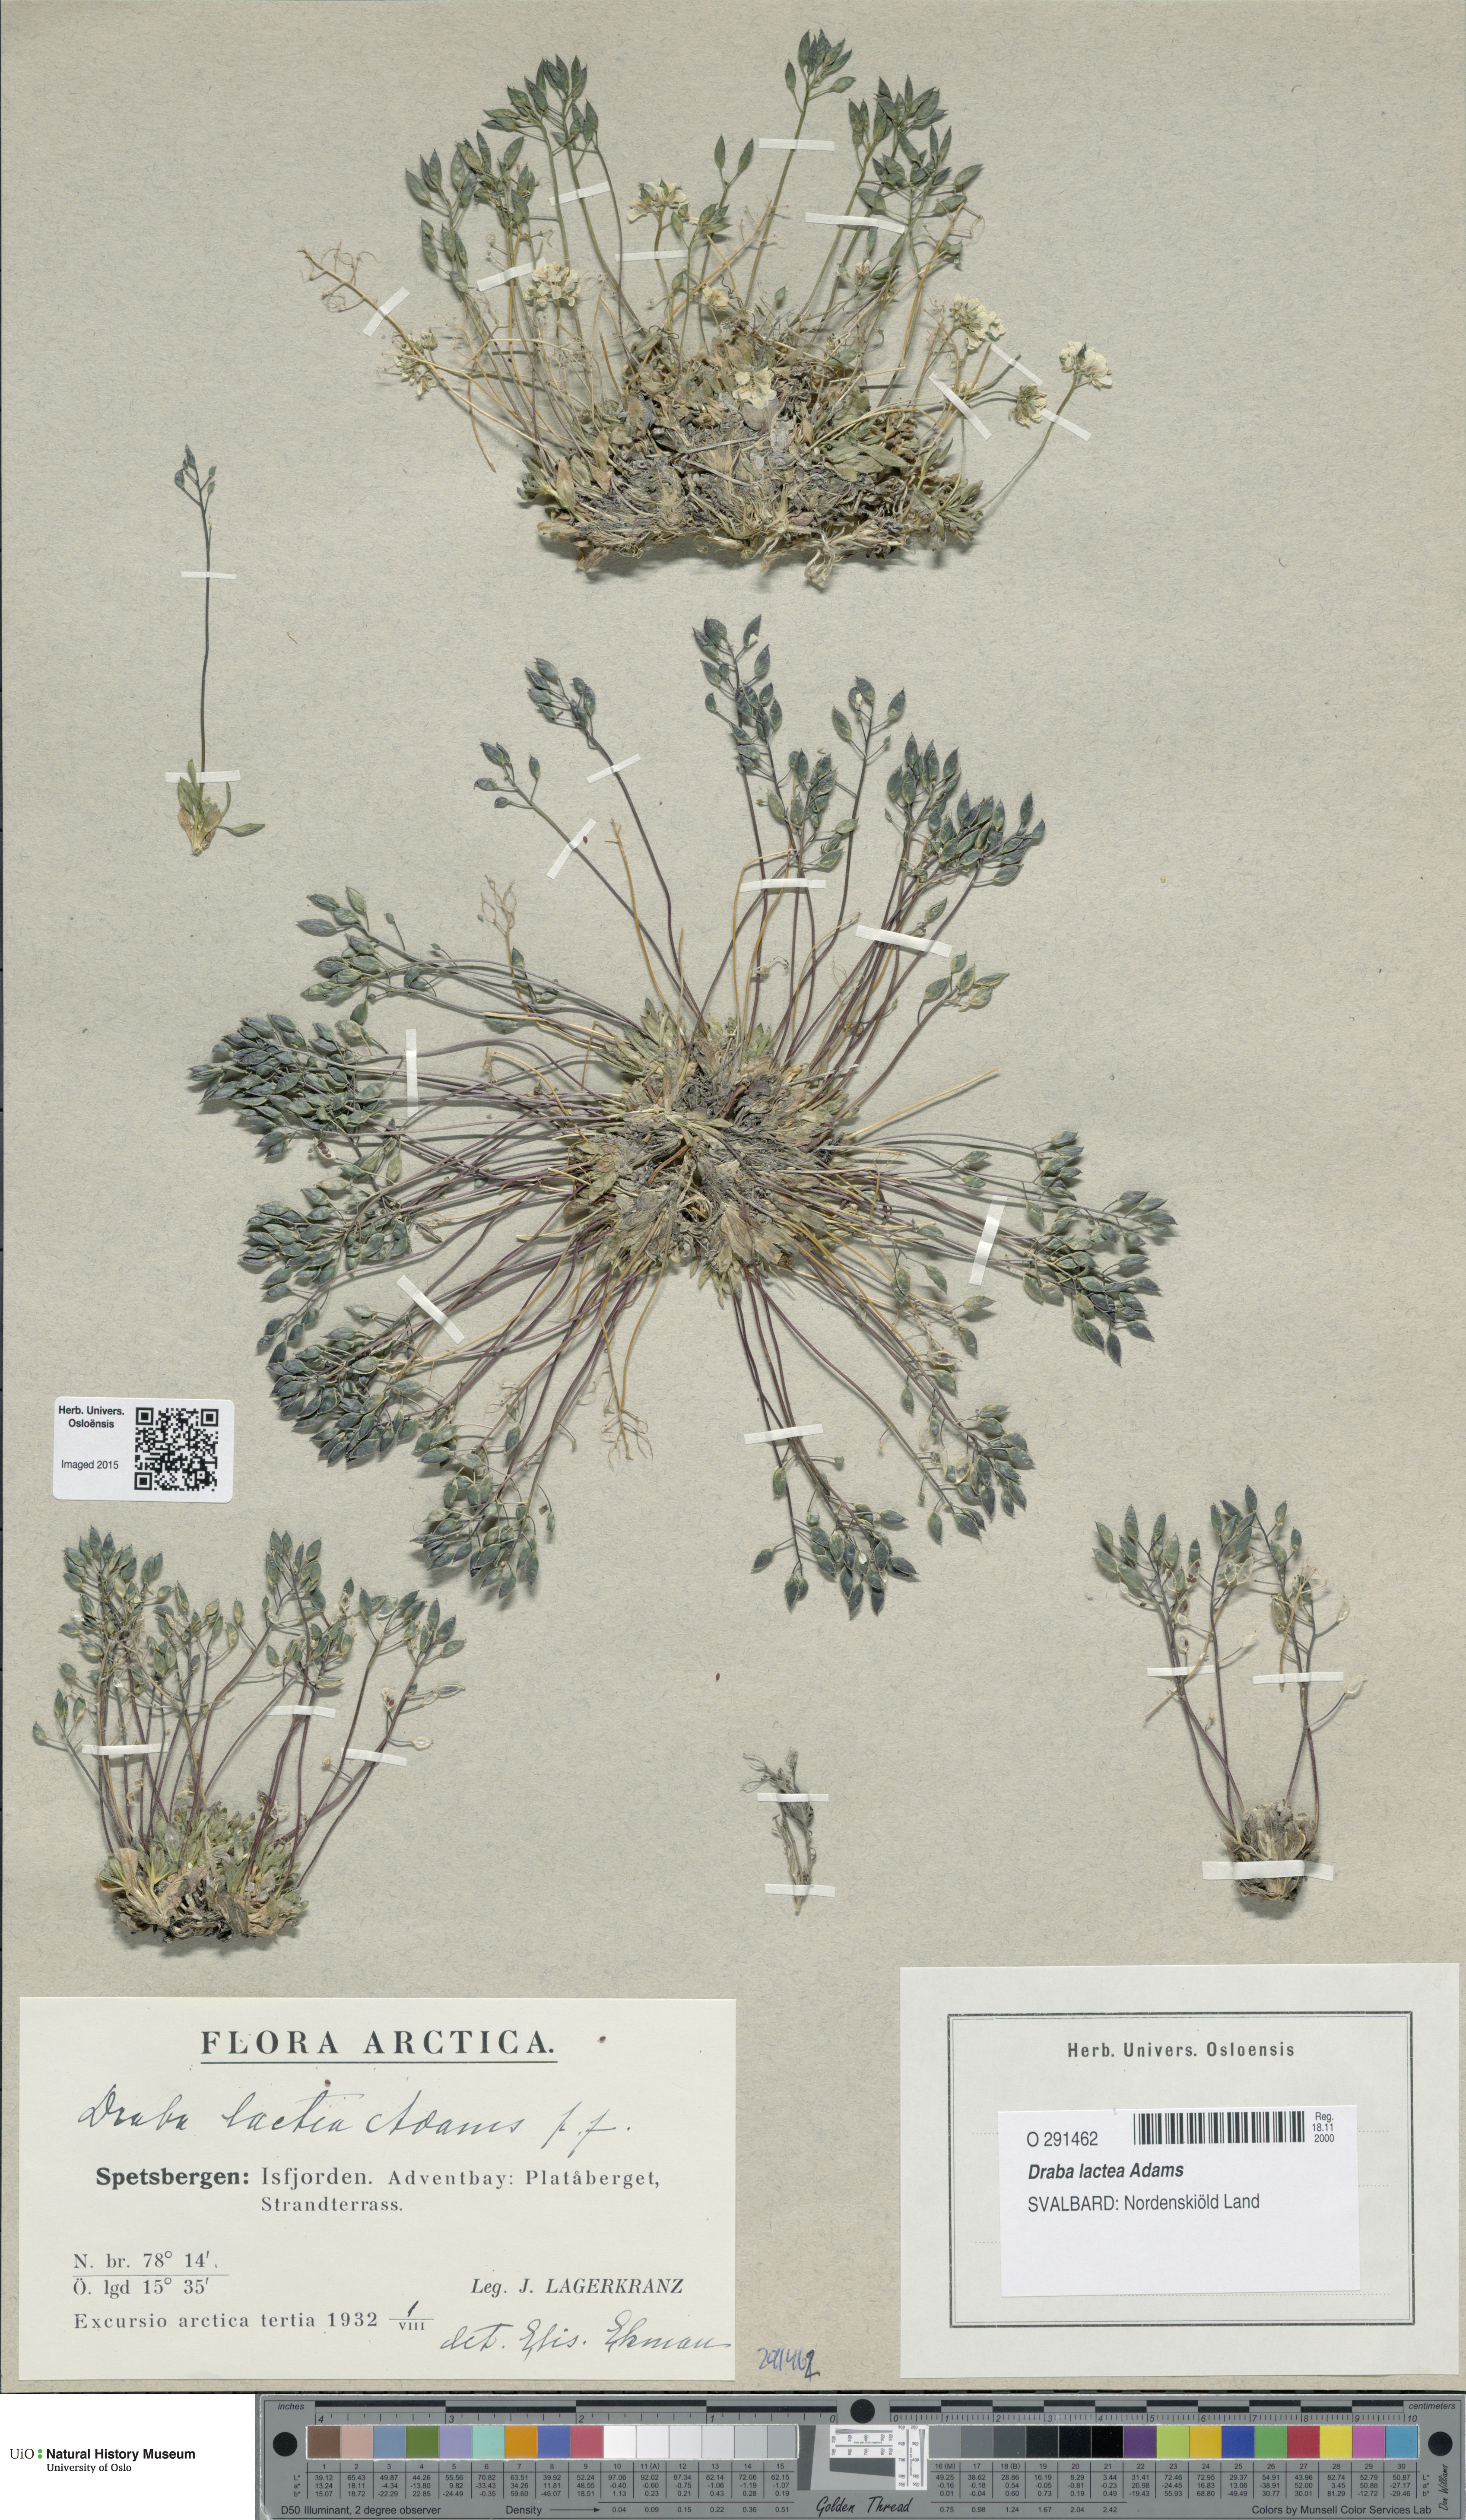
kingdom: Plantae
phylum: Tracheophyta
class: Magnoliopsida
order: Brassicales
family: Brassicaceae
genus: Draba
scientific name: Draba lactea
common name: Milky draba
